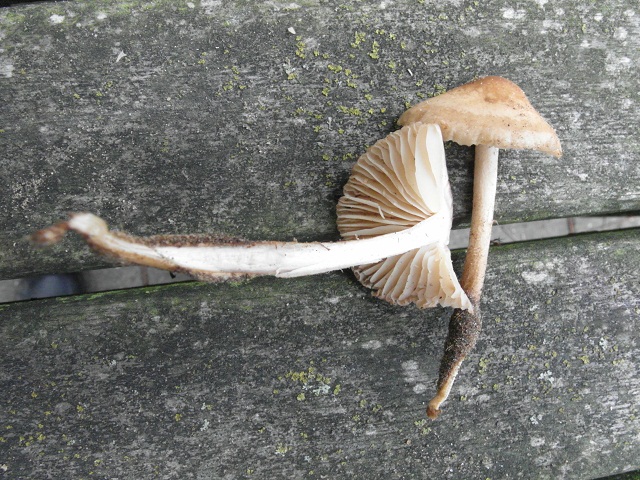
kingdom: Fungi
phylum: Basidiomycota
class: Agaricomycetes
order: Agaricales
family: Marasmiaceae
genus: Marasmius
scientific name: Marasmius oreades
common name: elledans-bruskhat
